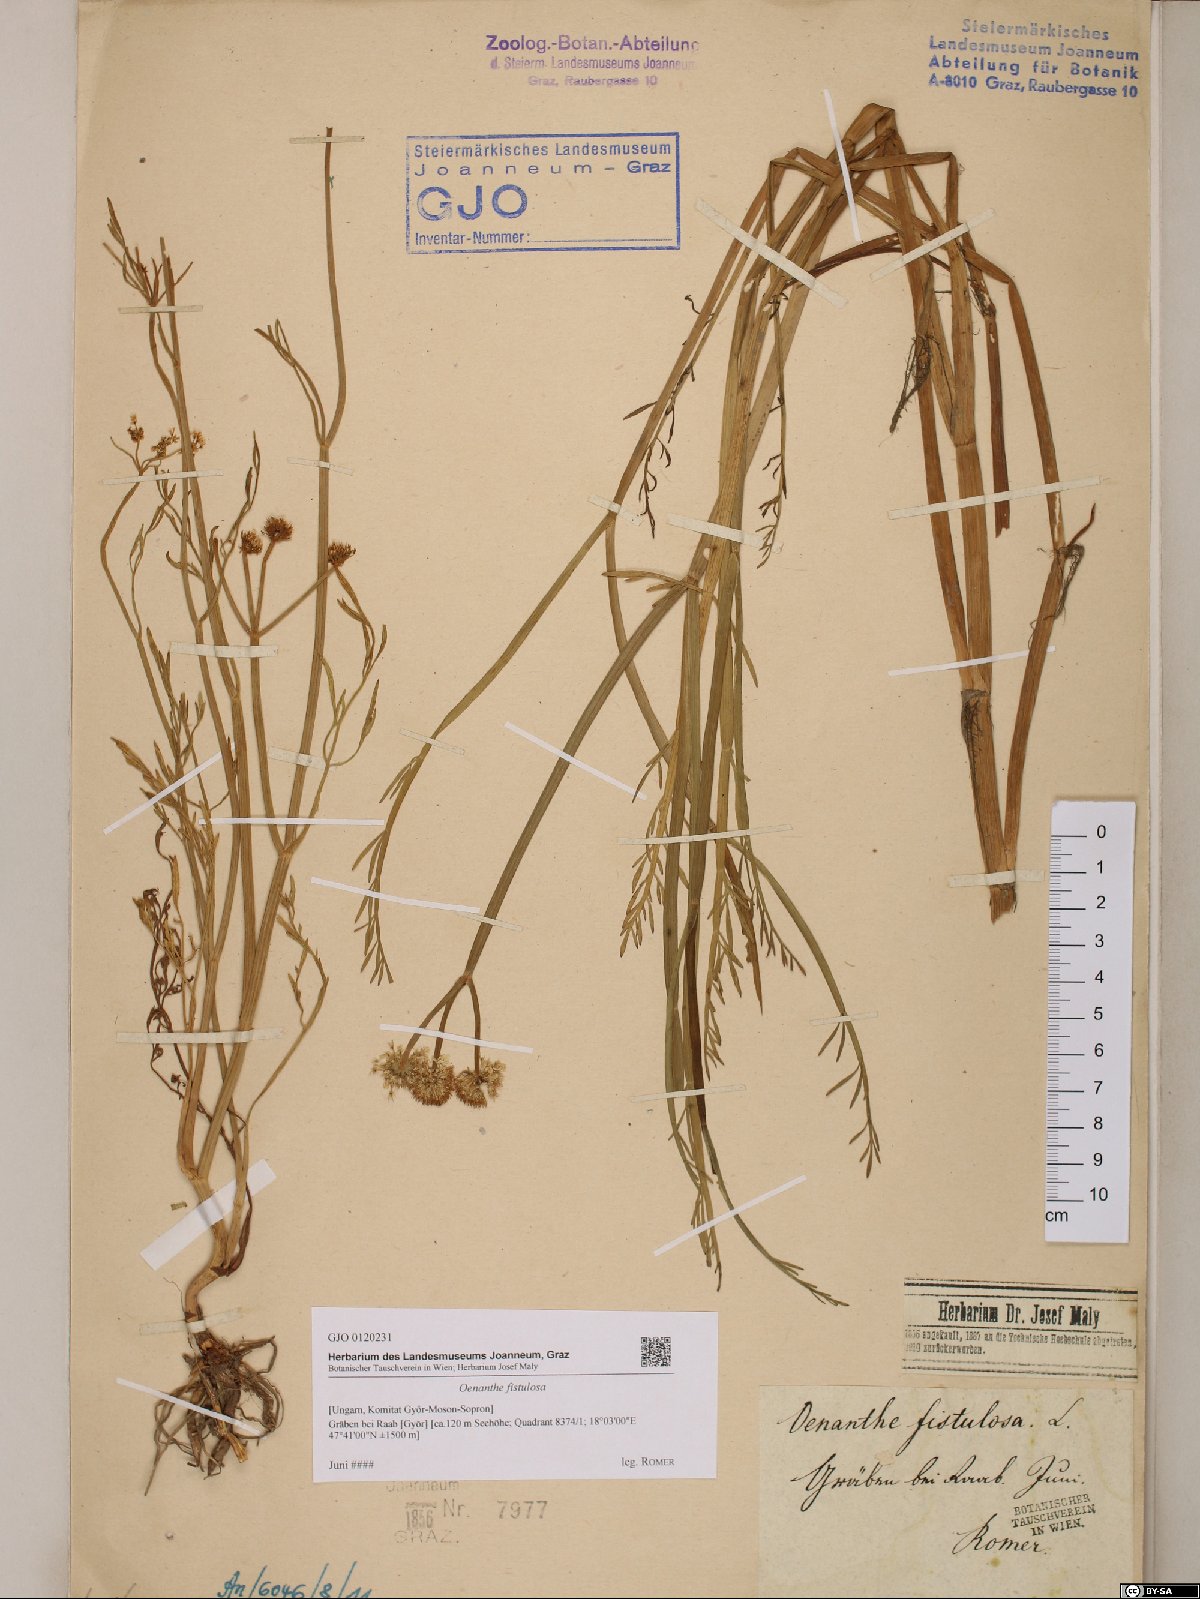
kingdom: Plantae
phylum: Tracheophyta
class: Magnoliopsida
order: Apiales
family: Apiaceae
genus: Oenanthe
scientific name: Oenanthe fistulosa
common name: Tubular water-dropwort
